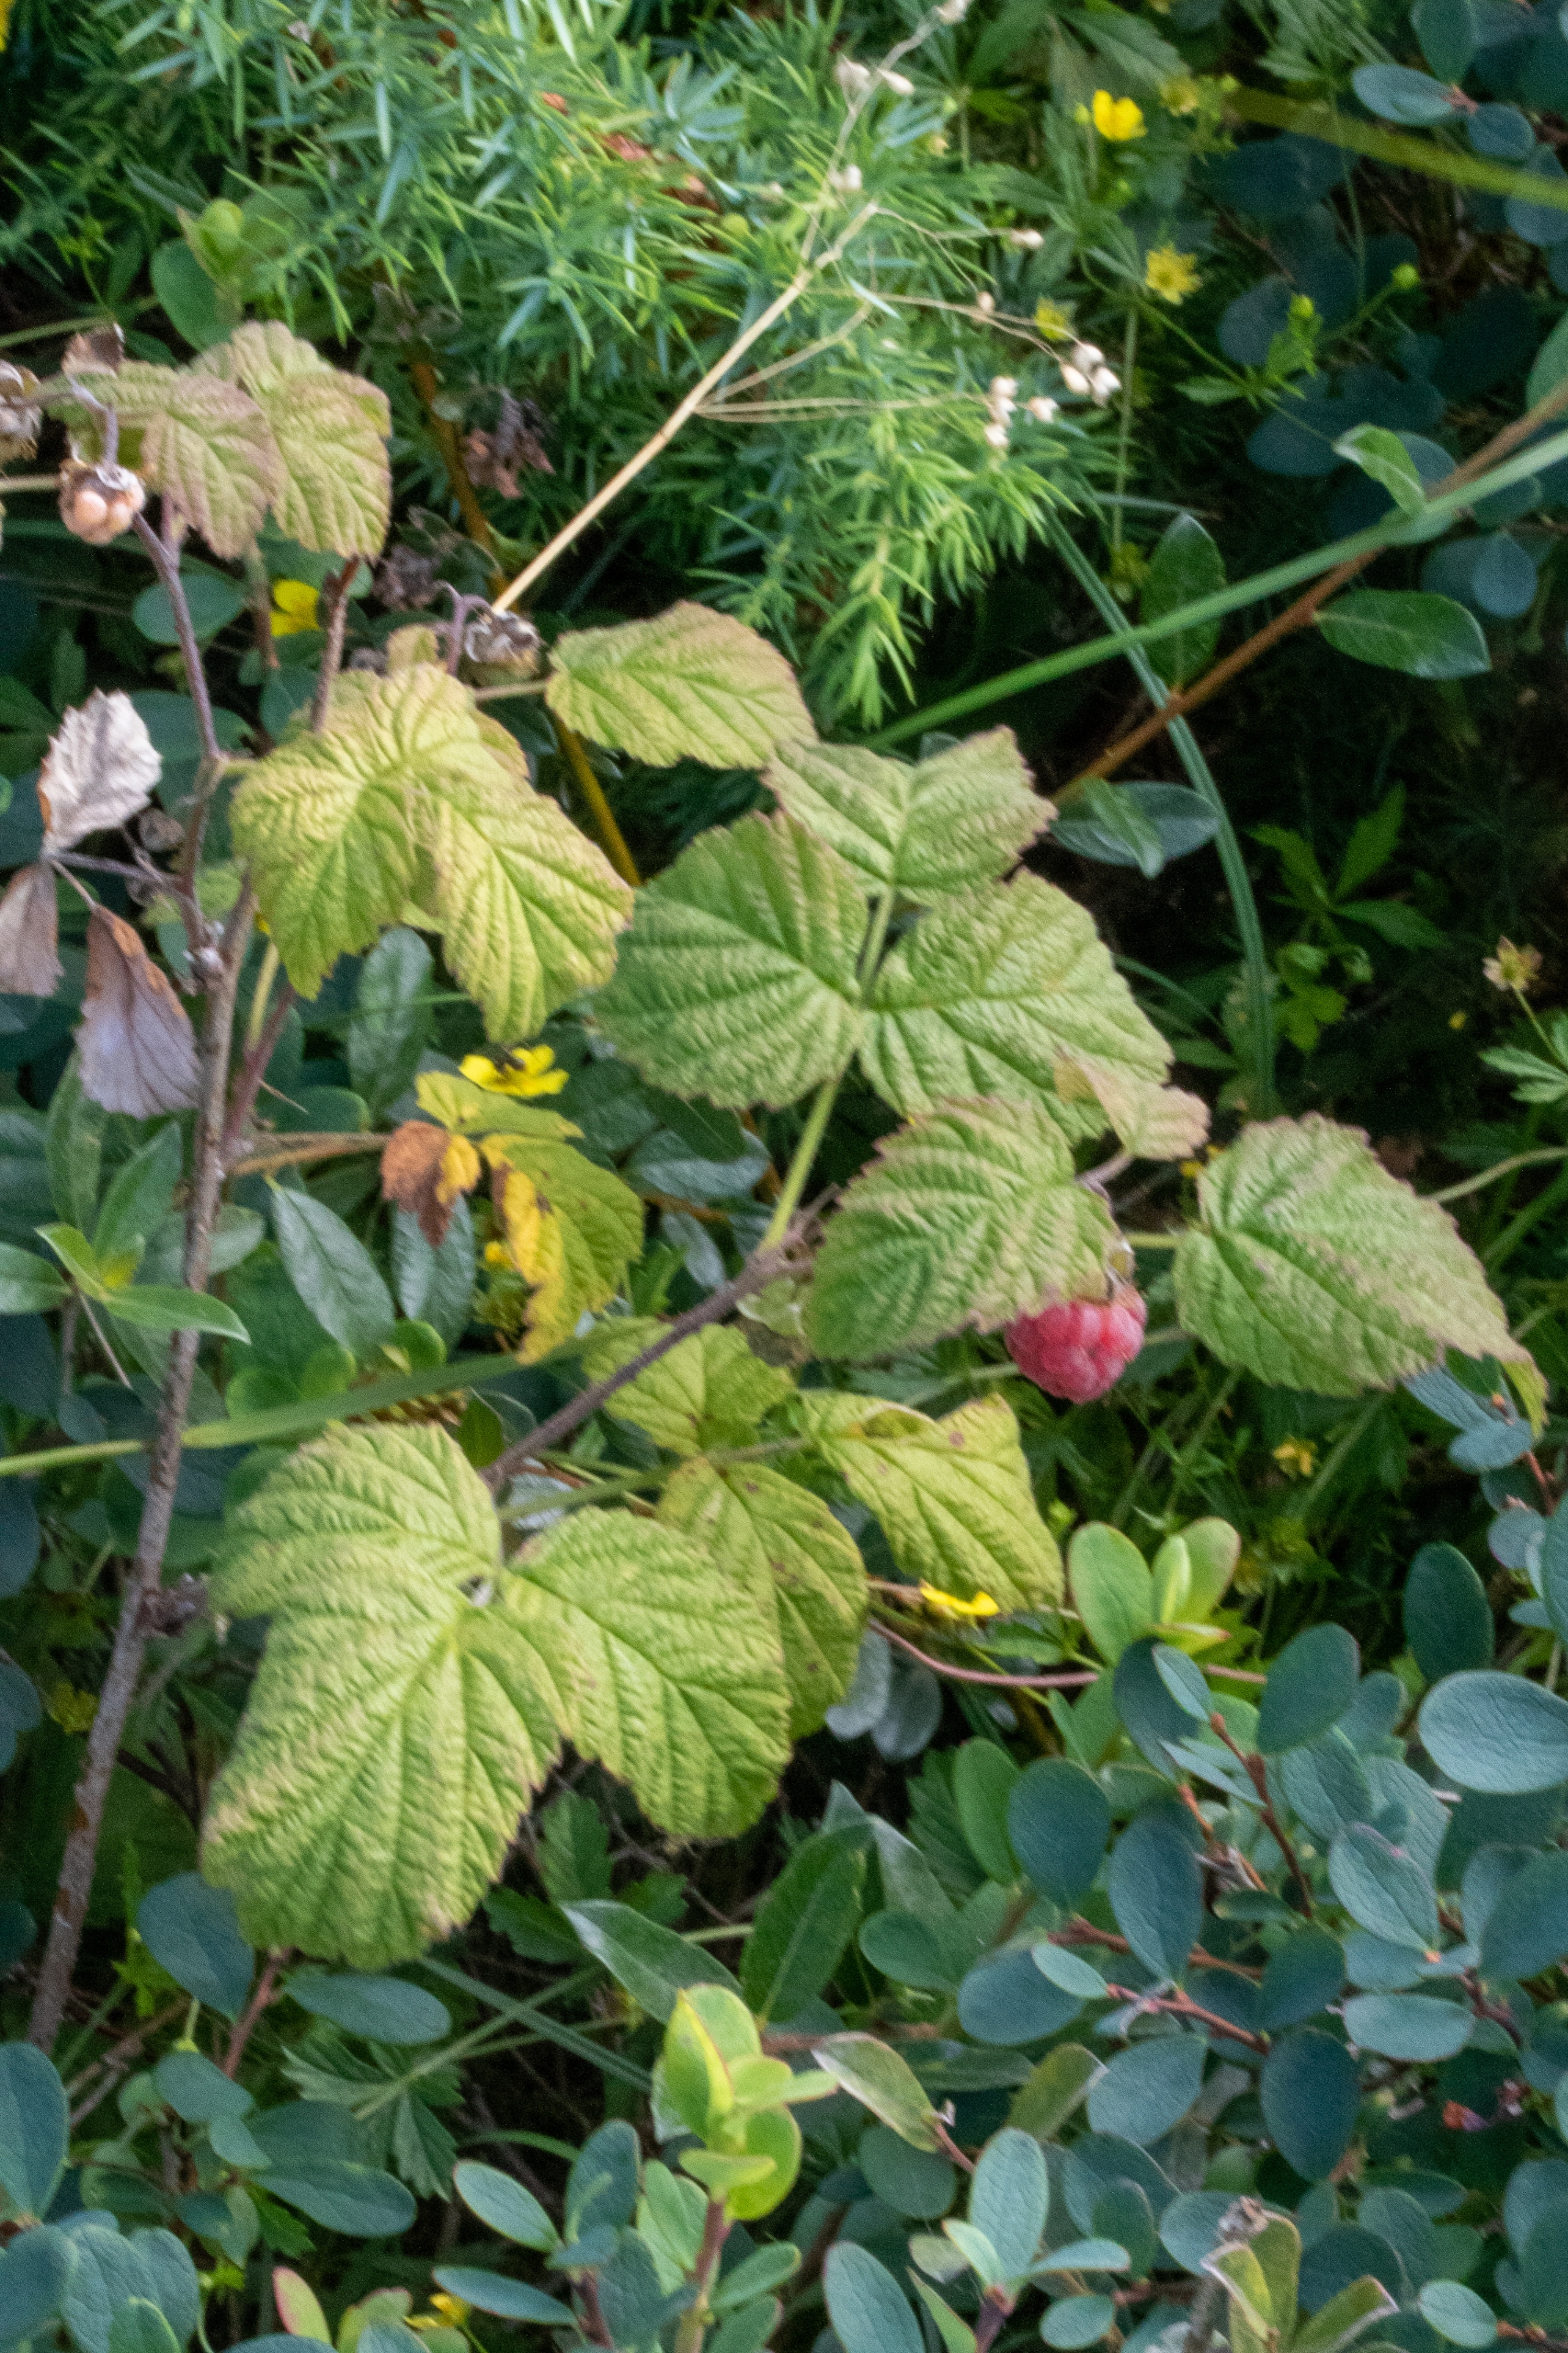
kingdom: Plantae
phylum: Tracheophyta
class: Magnoliopsida
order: Rosales
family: Rosaceae
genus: Rubus
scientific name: Rubus idaeus
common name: Hindbær
